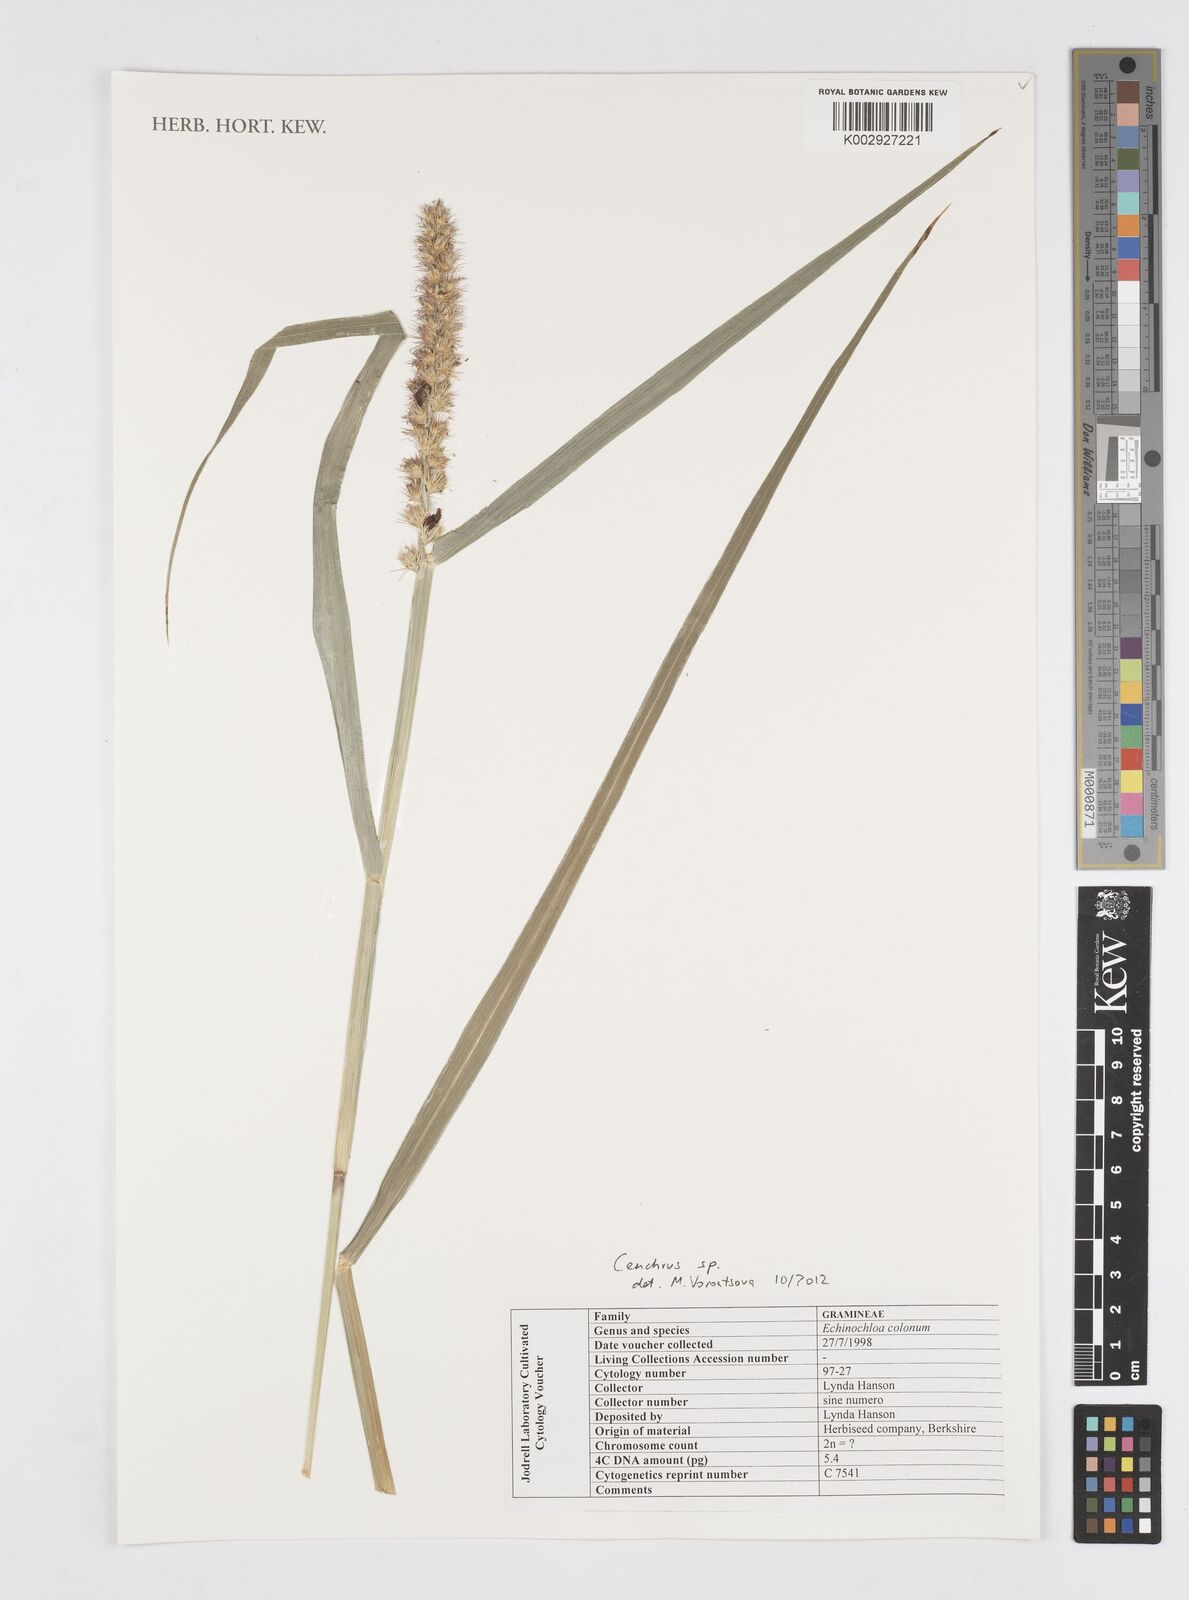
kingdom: Plantae
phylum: Tracheophyta
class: Liliopsida
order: Poales
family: Poaceae
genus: Cenchrus
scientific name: Cenchrus
